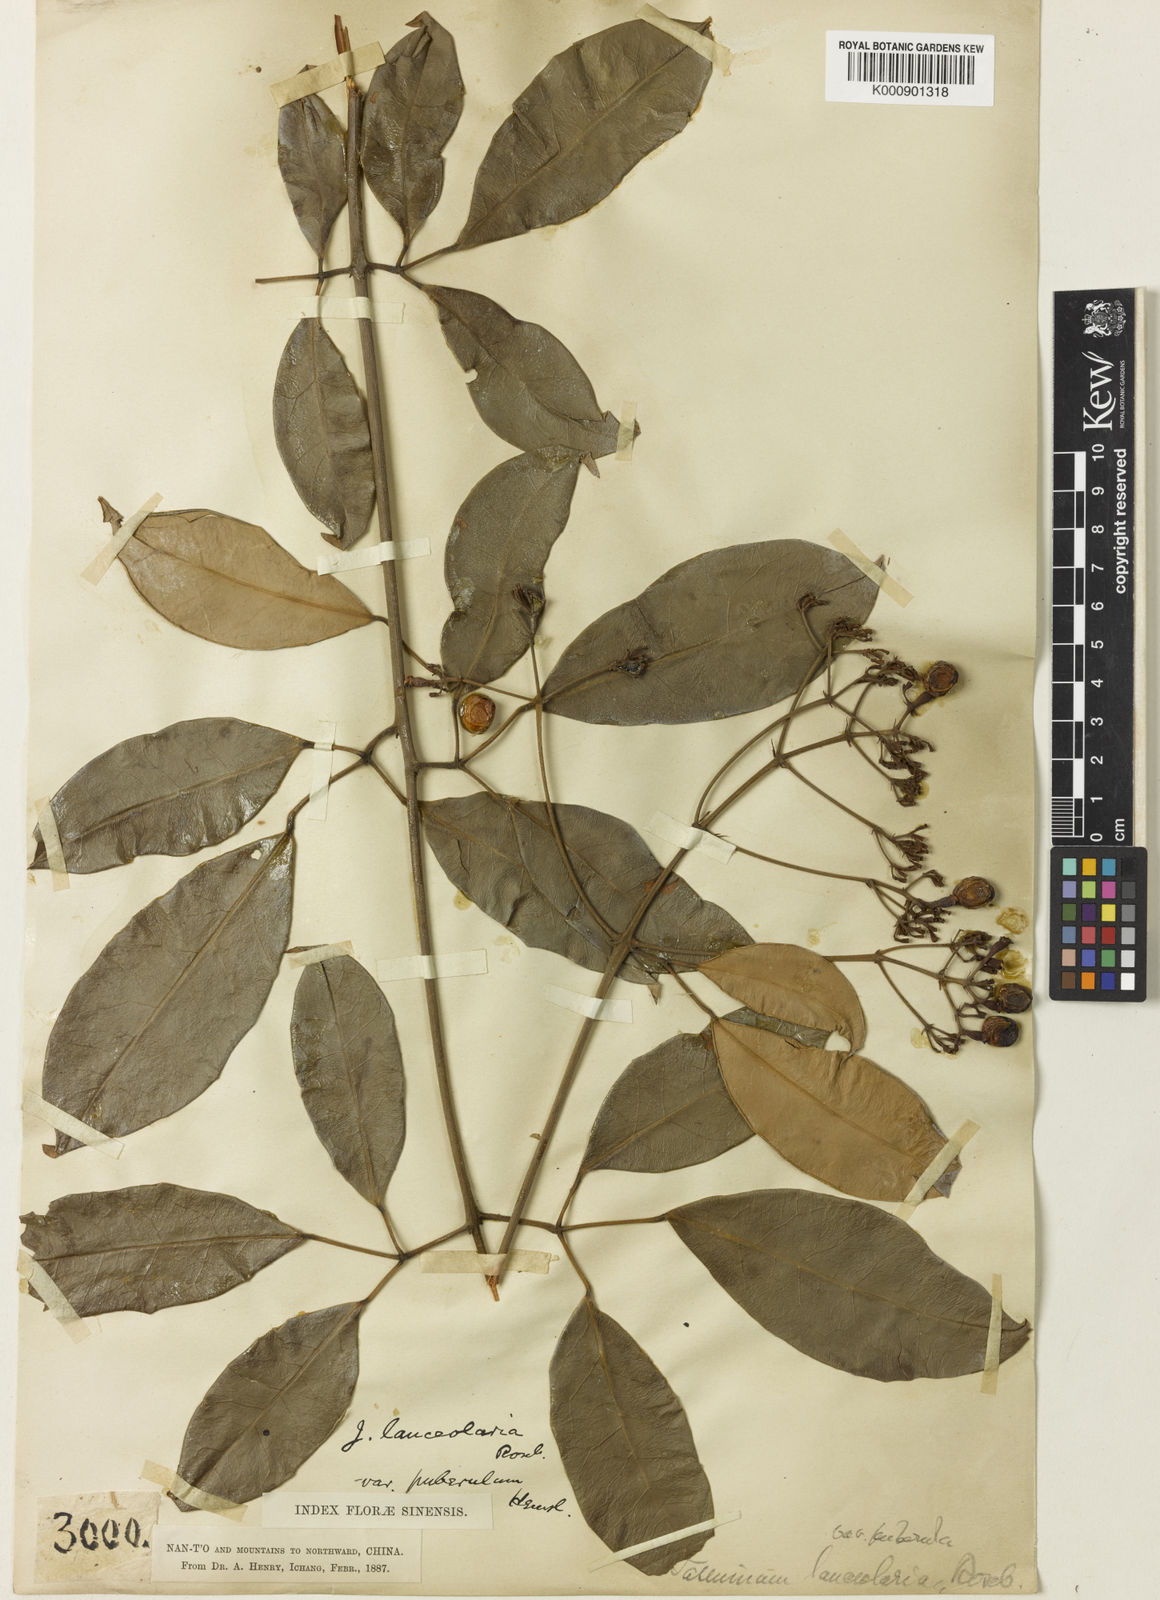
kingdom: Plantae
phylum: Tracheophyta
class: Magnoliopsida
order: Lamiales
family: Oleaceae
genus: Jasminum
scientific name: Jasminum lanceolaria
